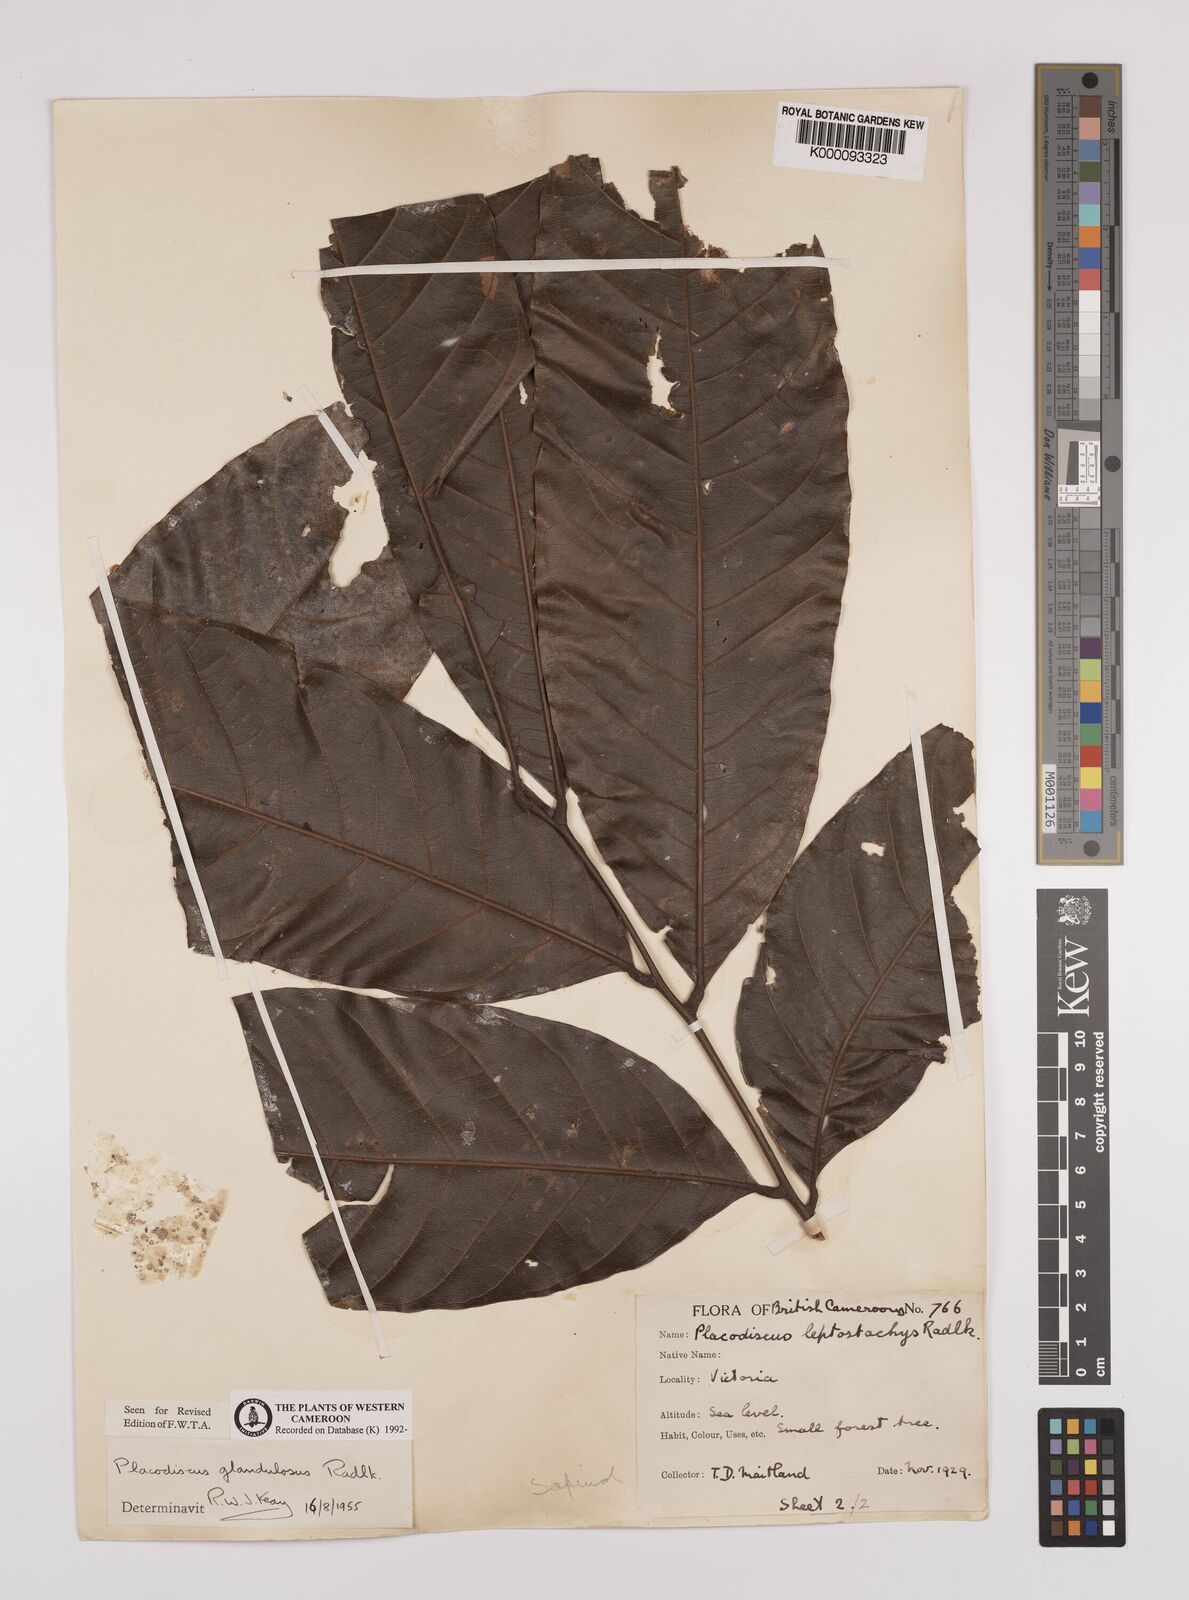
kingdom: Plantae
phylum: Tracheophyta
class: Magnoliopsida
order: Sapindales
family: Sapindaceae
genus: Placodiscus
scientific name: Placodiscus glandulosus
